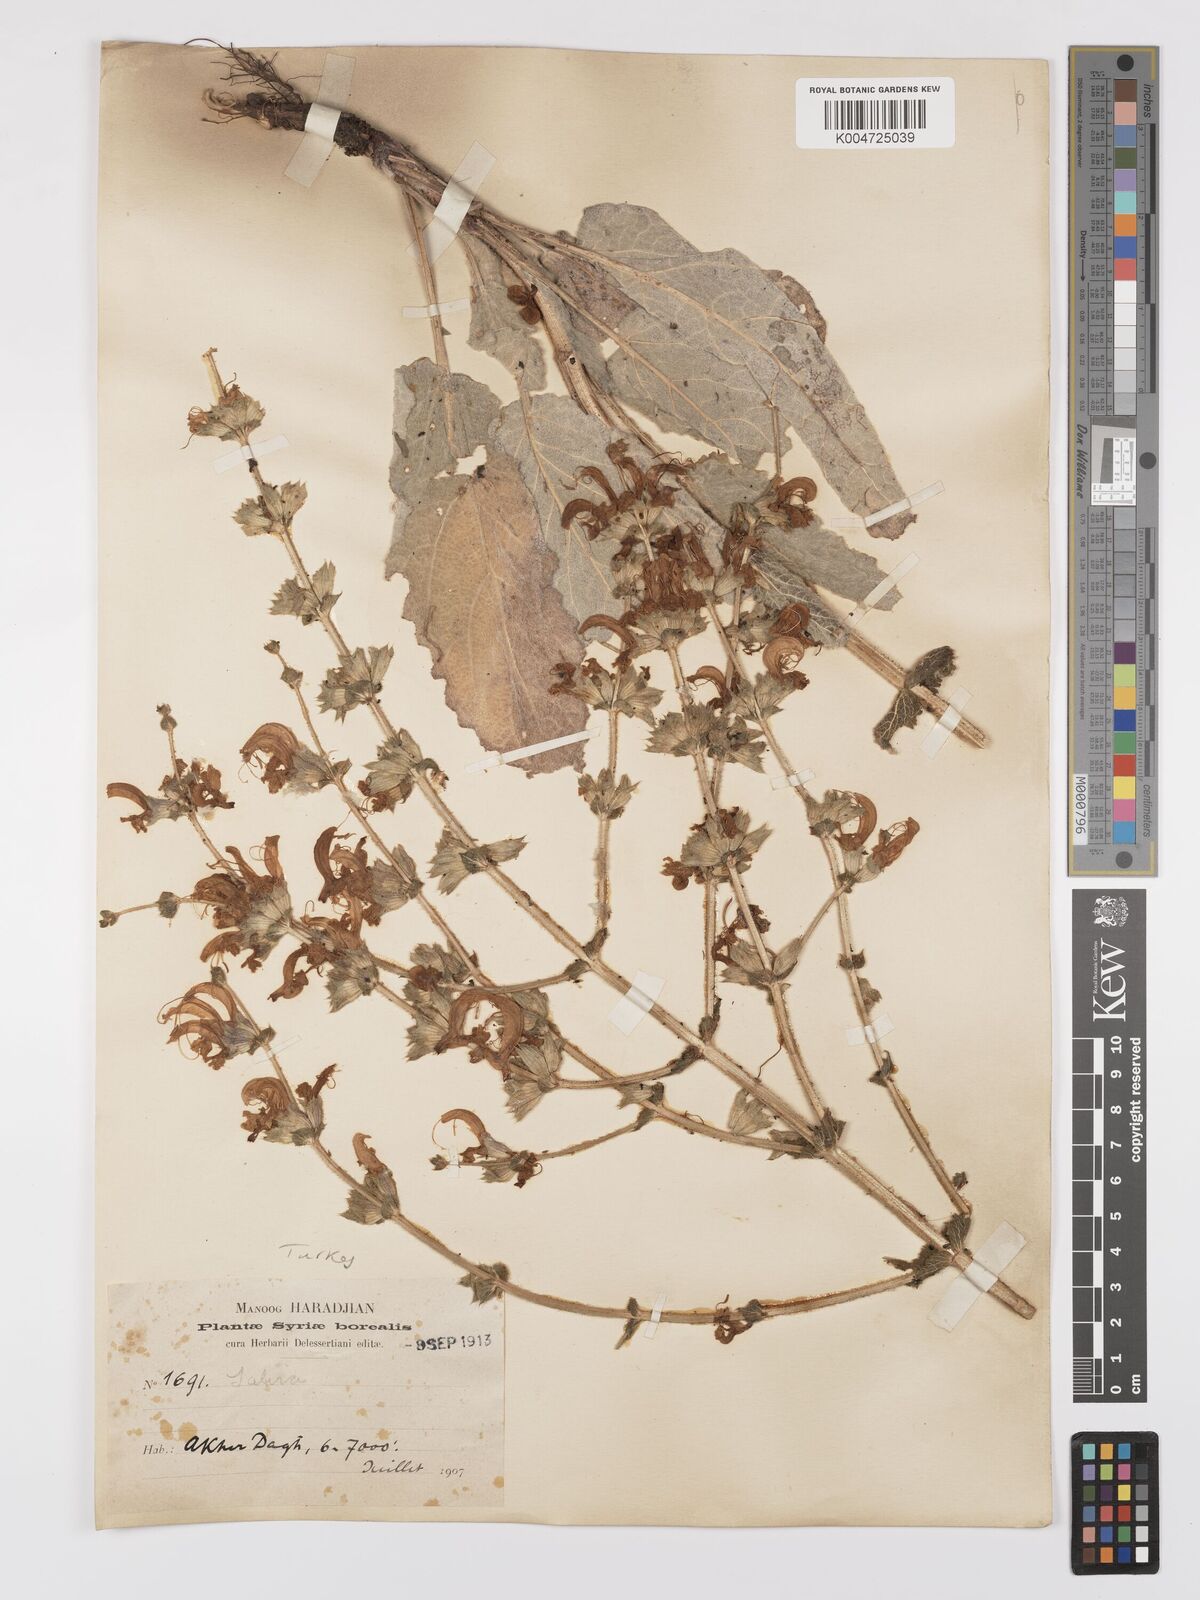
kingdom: Plantae
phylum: Tracheophyta
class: Magnoliopsida
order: Lamiales
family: Lamiaceae
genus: Salvia
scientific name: Salvia microstegia
